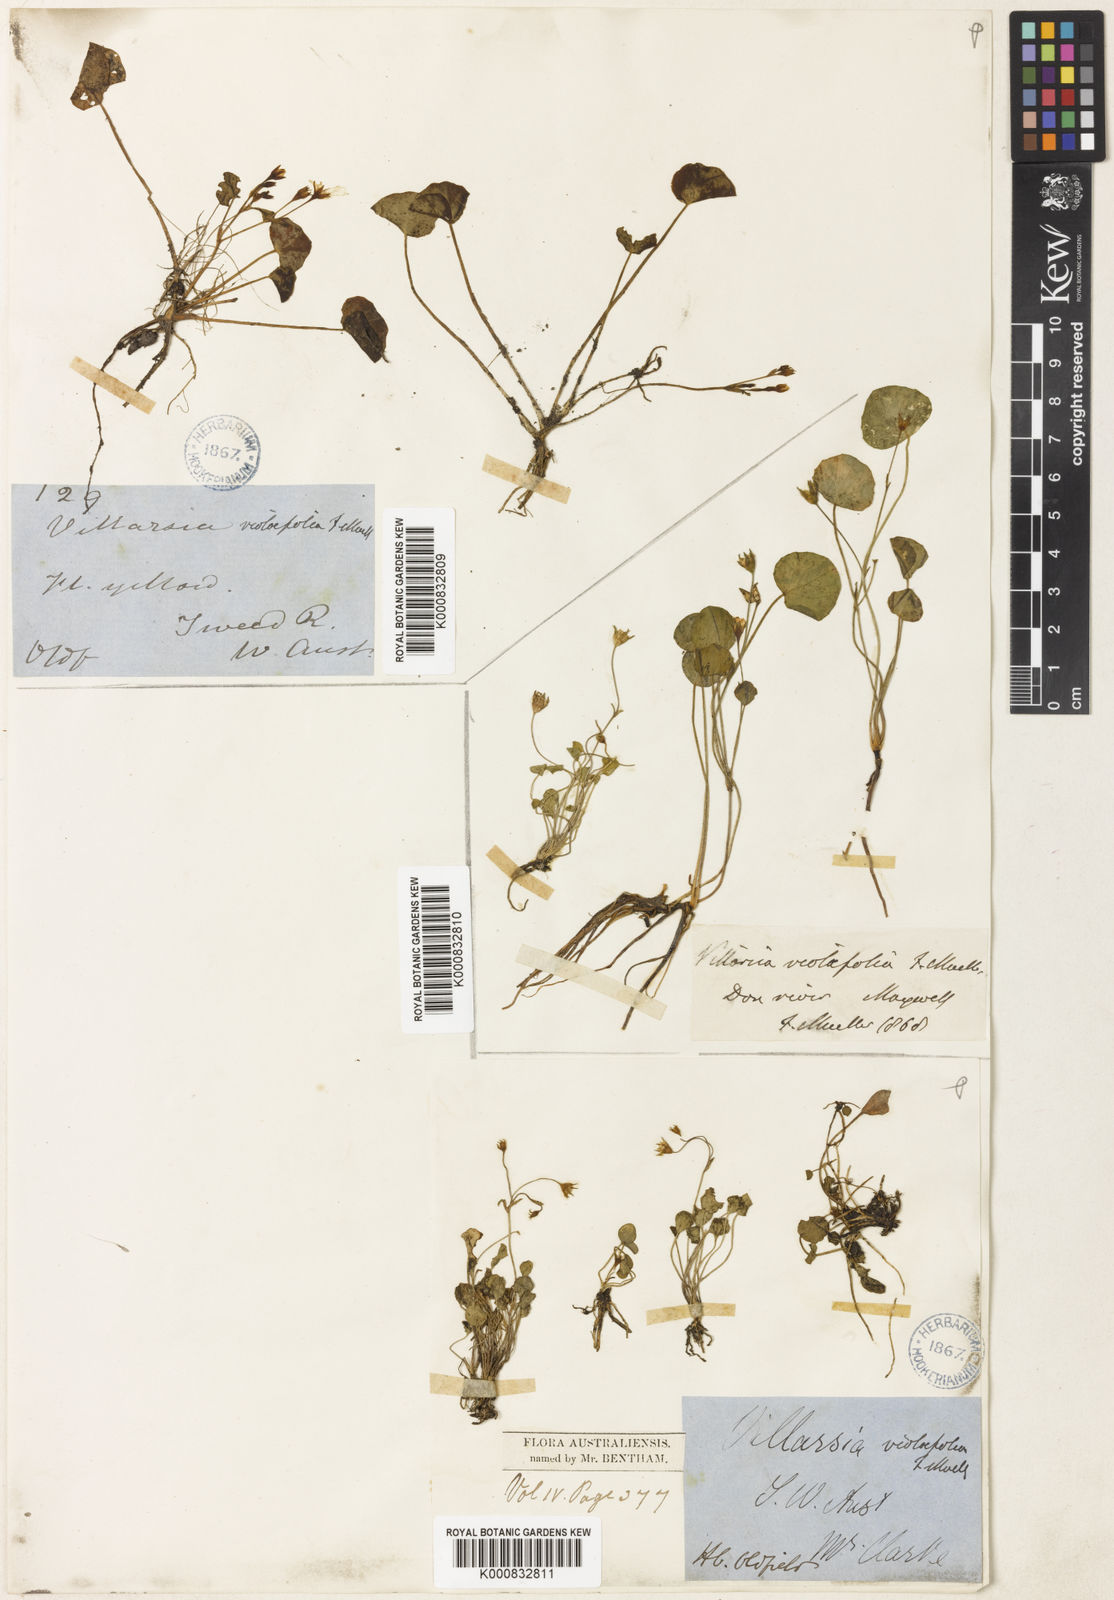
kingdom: Plantae
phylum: Tracheophyta
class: Magnoliopsida
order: Asterales
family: Menyanthaceae
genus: Liparophyllum
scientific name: Liparophyllum violifolium
